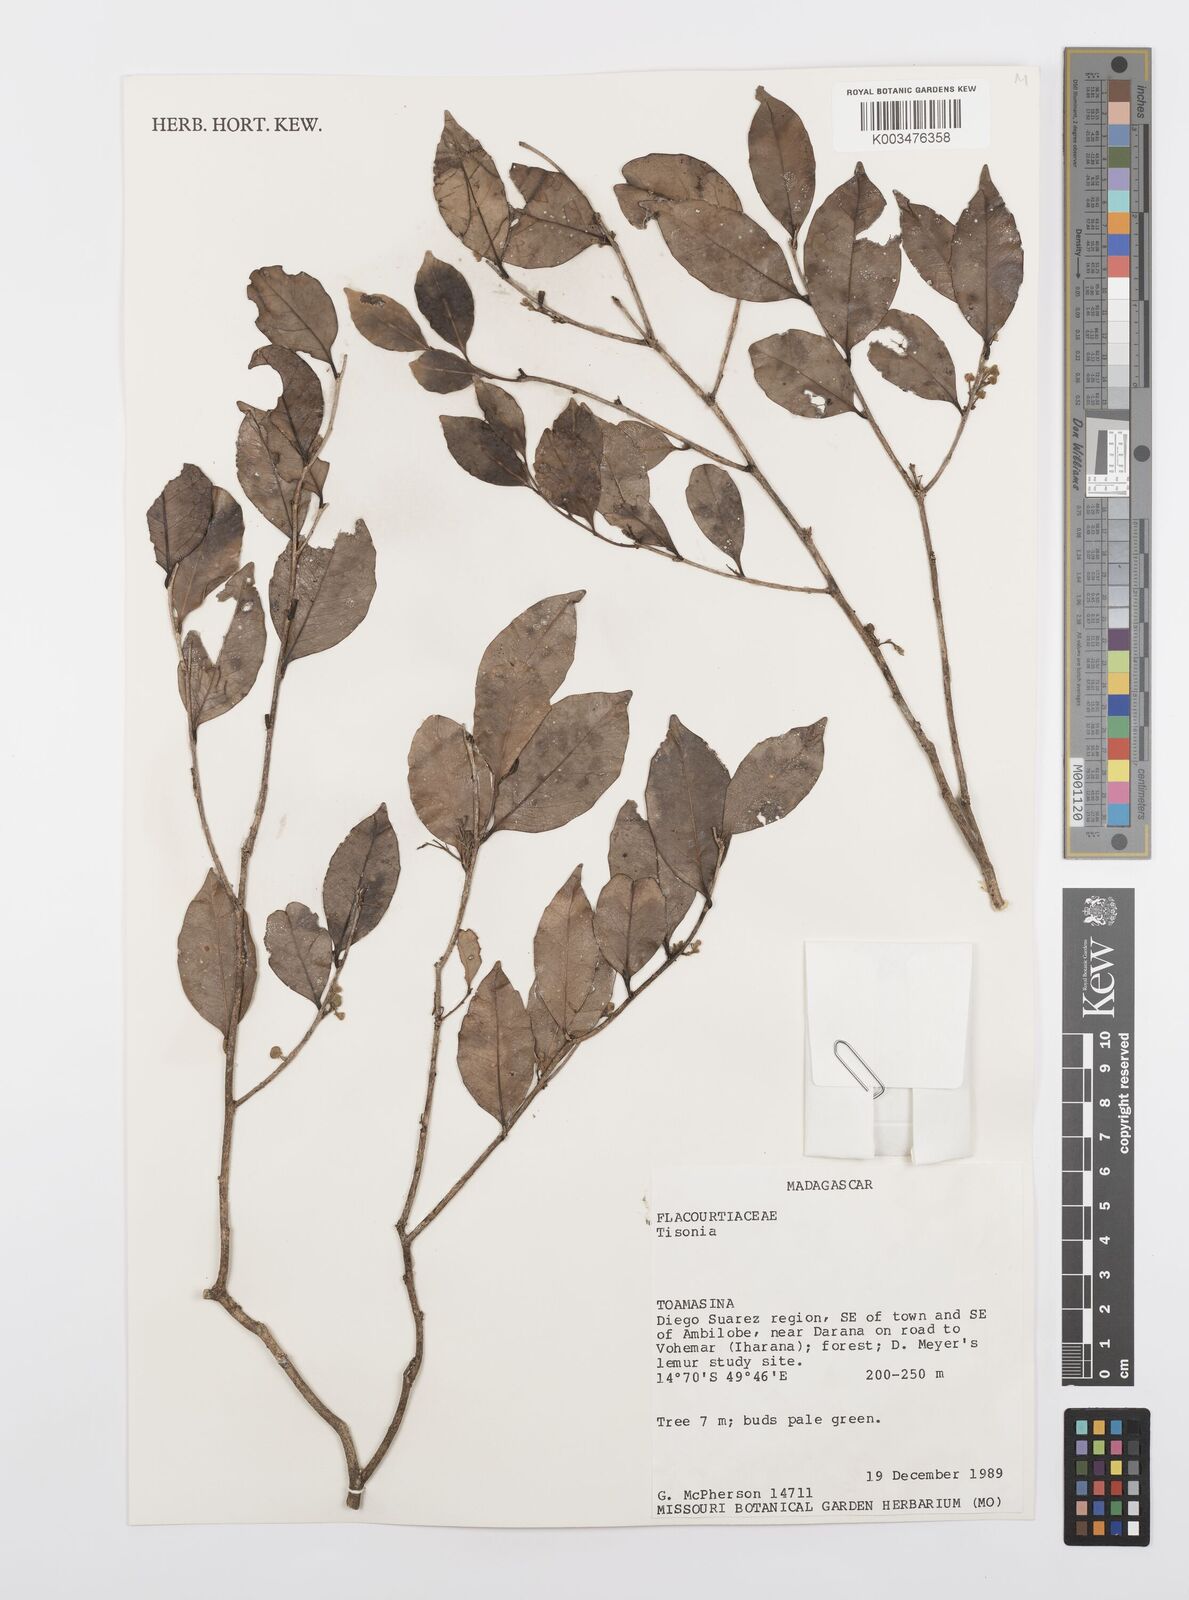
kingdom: Plantae
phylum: Tracheophyta
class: Magnoliopsida
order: Malpighiales
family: Salicaceae
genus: Tisonia
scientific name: Tisonia
